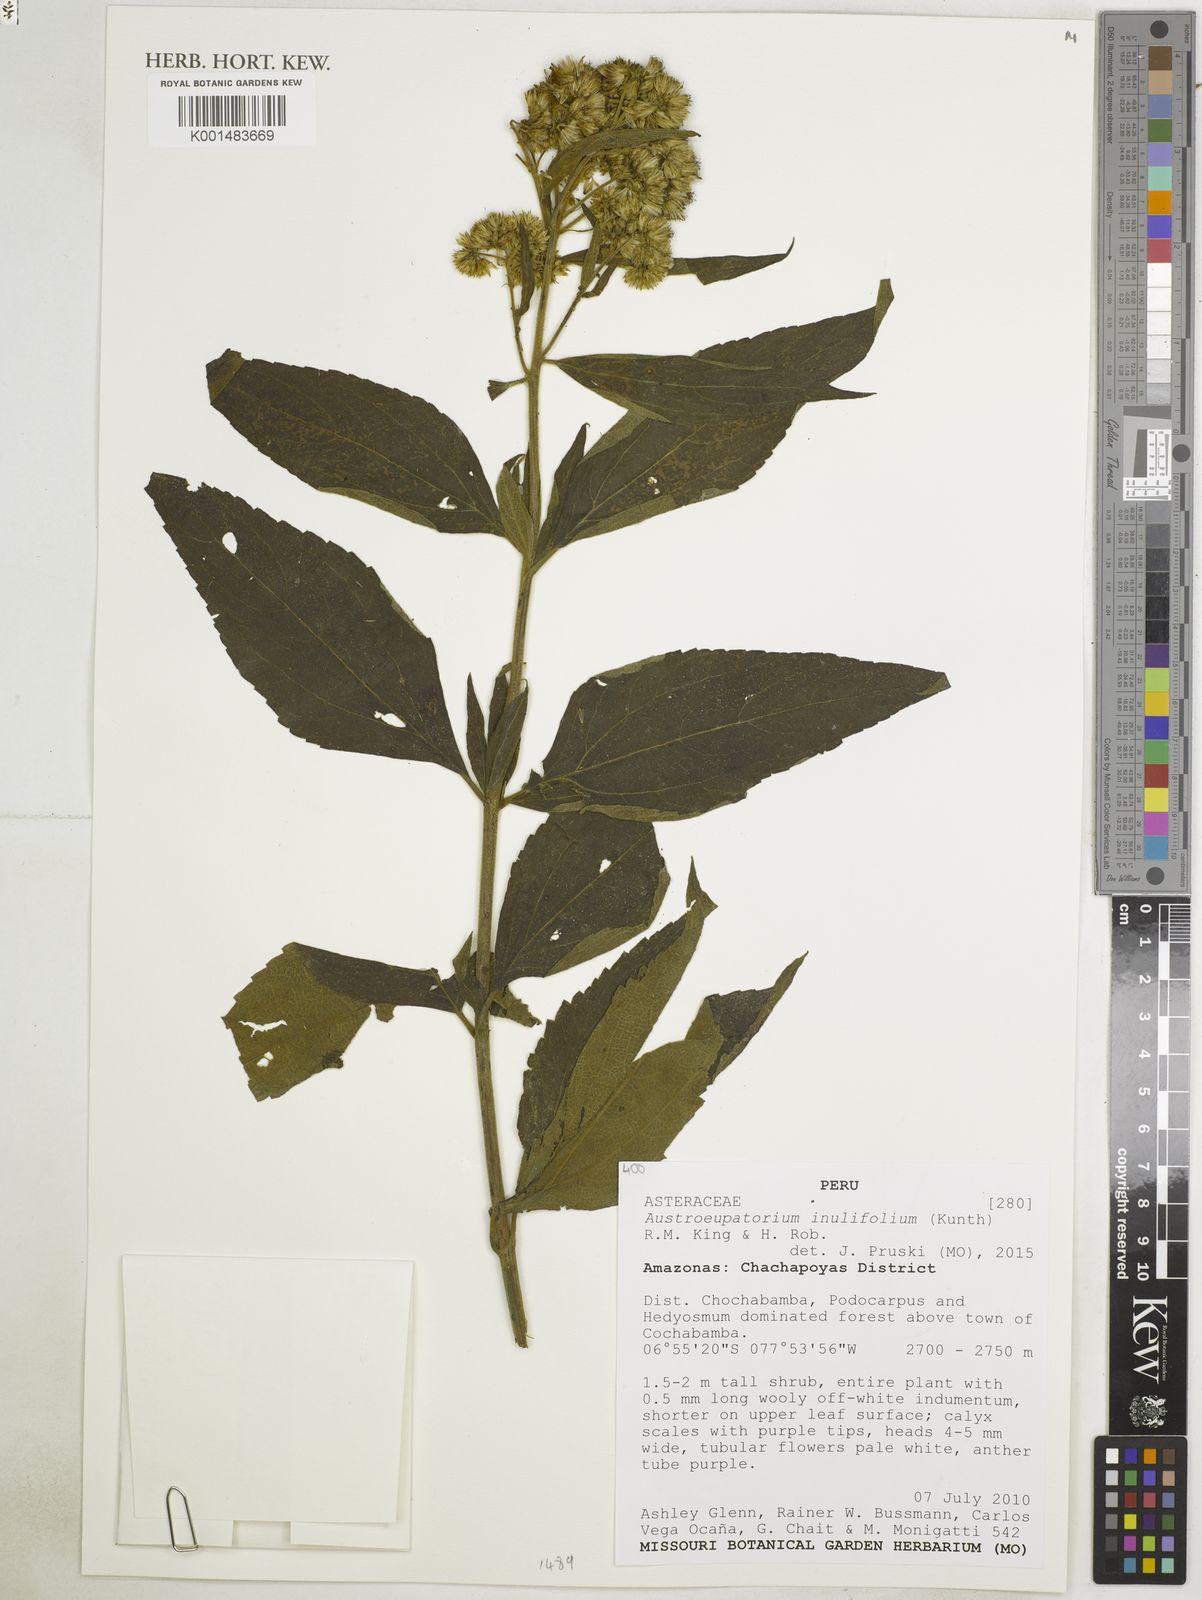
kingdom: Plantae
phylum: Tracheophyta
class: Magnoliopsida
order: Asterales
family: Asteraceae
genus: Austroeupatorium
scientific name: Austroeupatorium inulifolium
